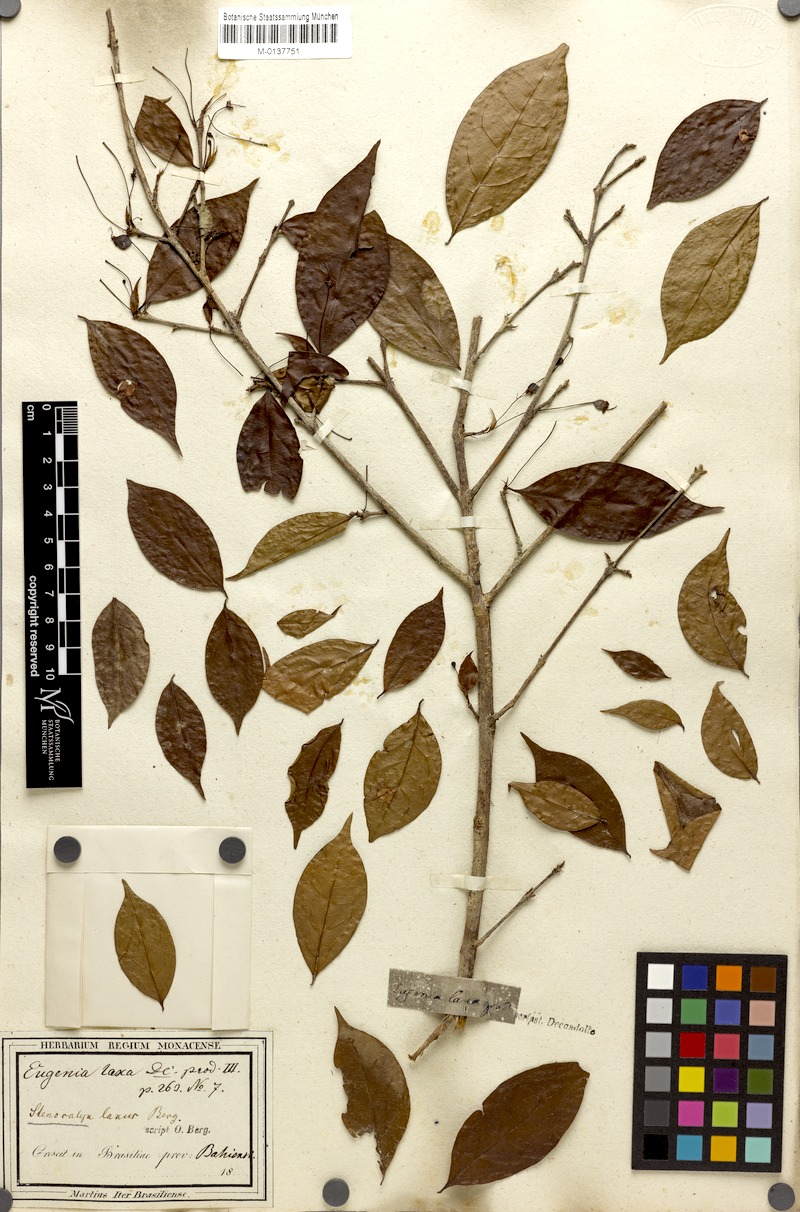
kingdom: Plantae
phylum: Tracheophyta
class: Magnoliopsida
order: Myrtales
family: Myrtaceae
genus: Eugenia
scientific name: Eugenia laxa
